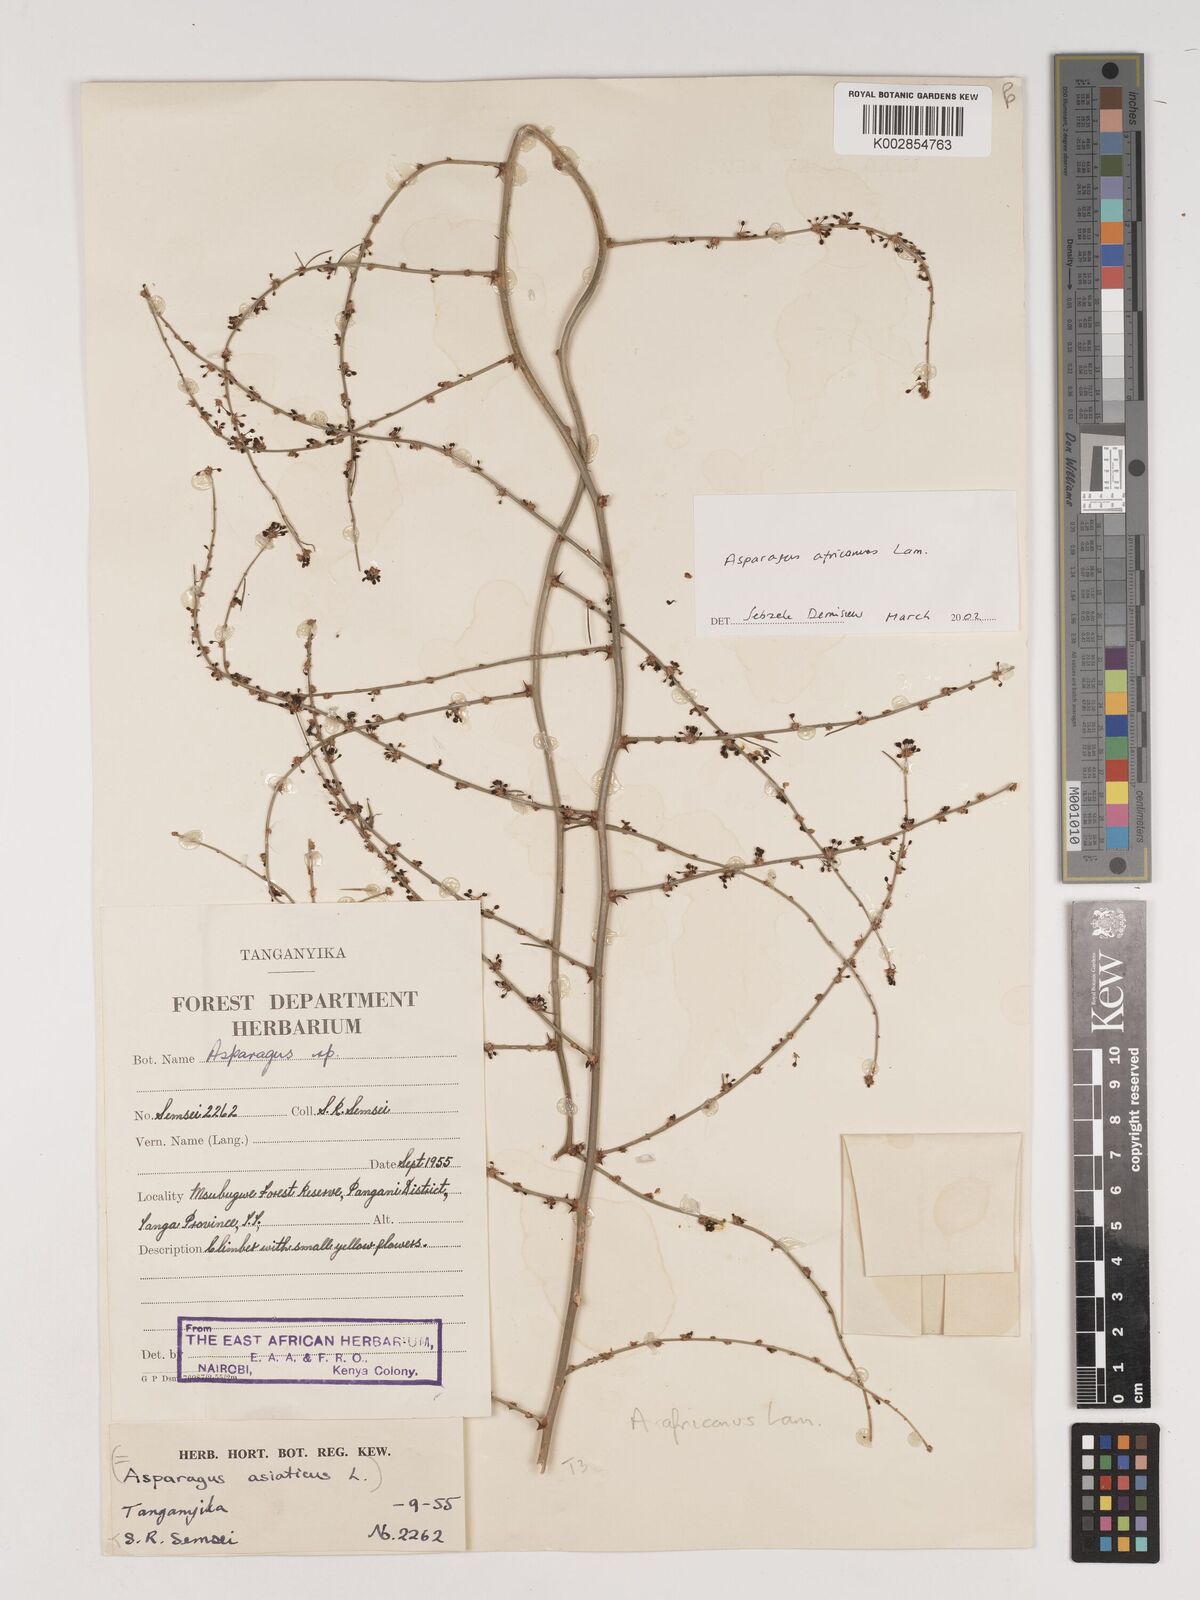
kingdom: Plantae
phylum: Tracheophyta
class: Liliopsida
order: Asparagales
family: Asparagaceae
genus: Asparagus
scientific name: Asparagus africanus
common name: Asparagus-fern
